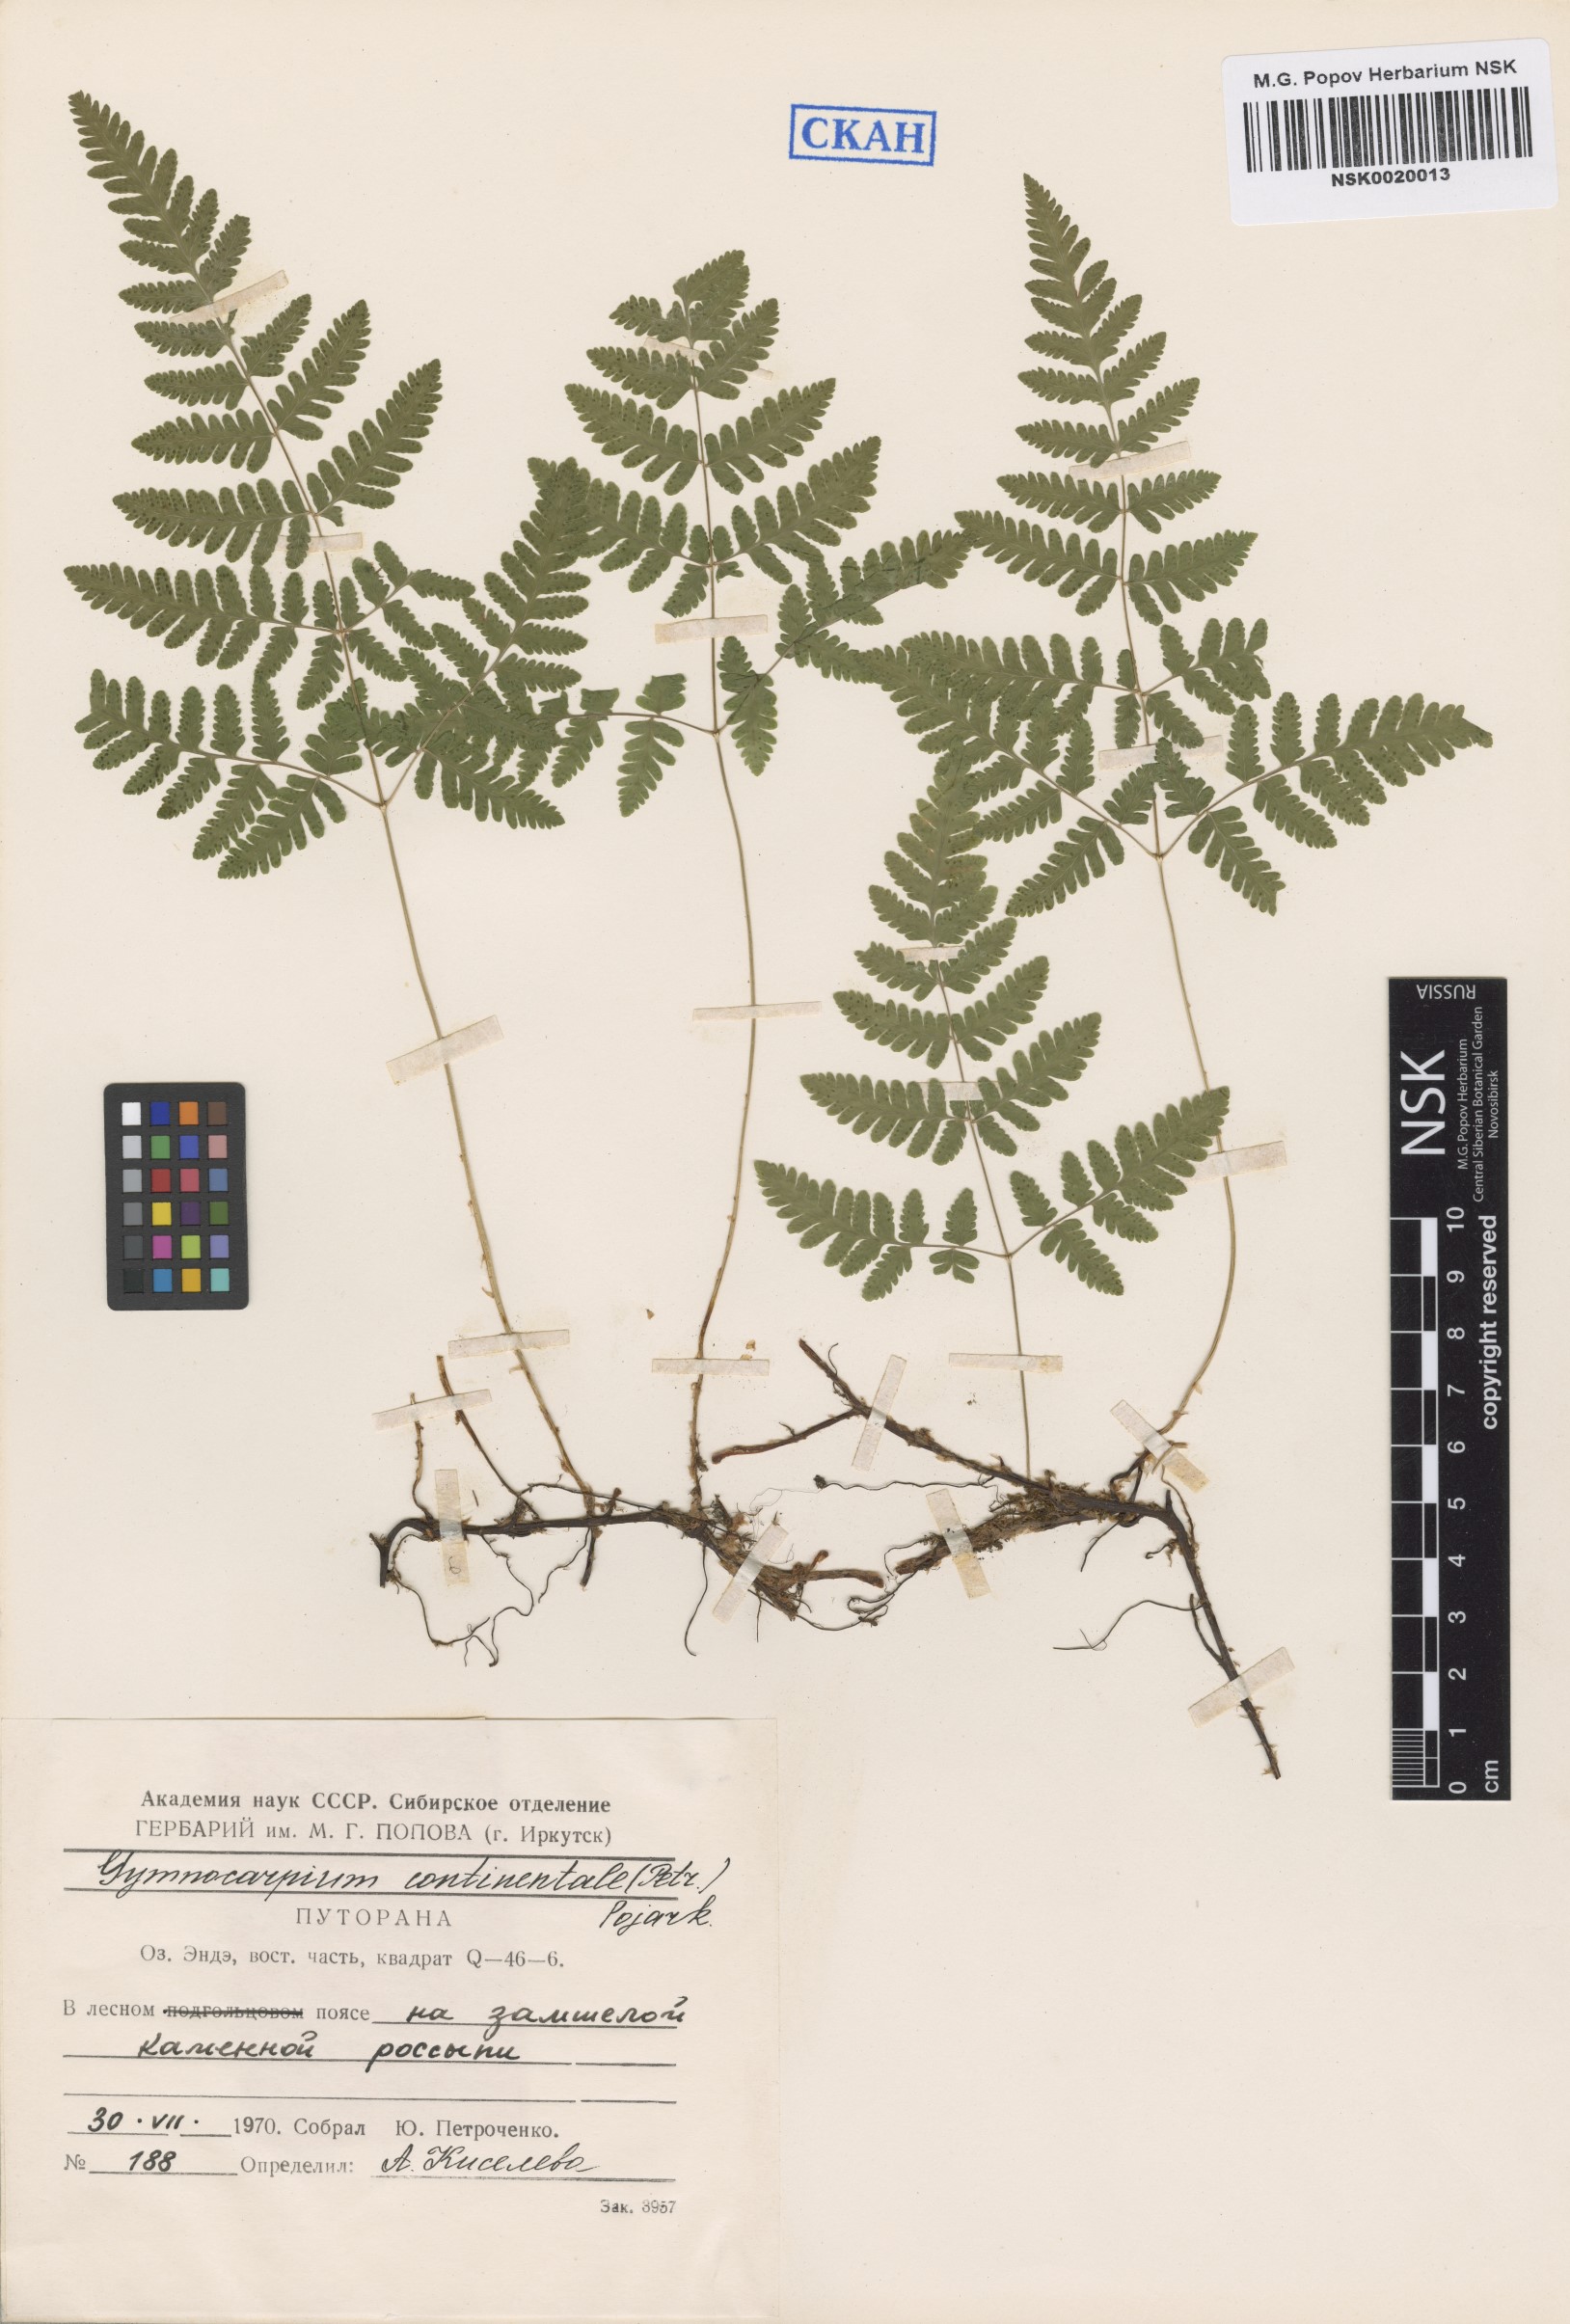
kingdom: Plantae
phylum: Tracheophyta
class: Polypodiopsida
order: Polypodiales
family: Cystopteridaceae
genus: Gymnocarpium
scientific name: Gymnocarpium continentale
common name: Asian oak fern
